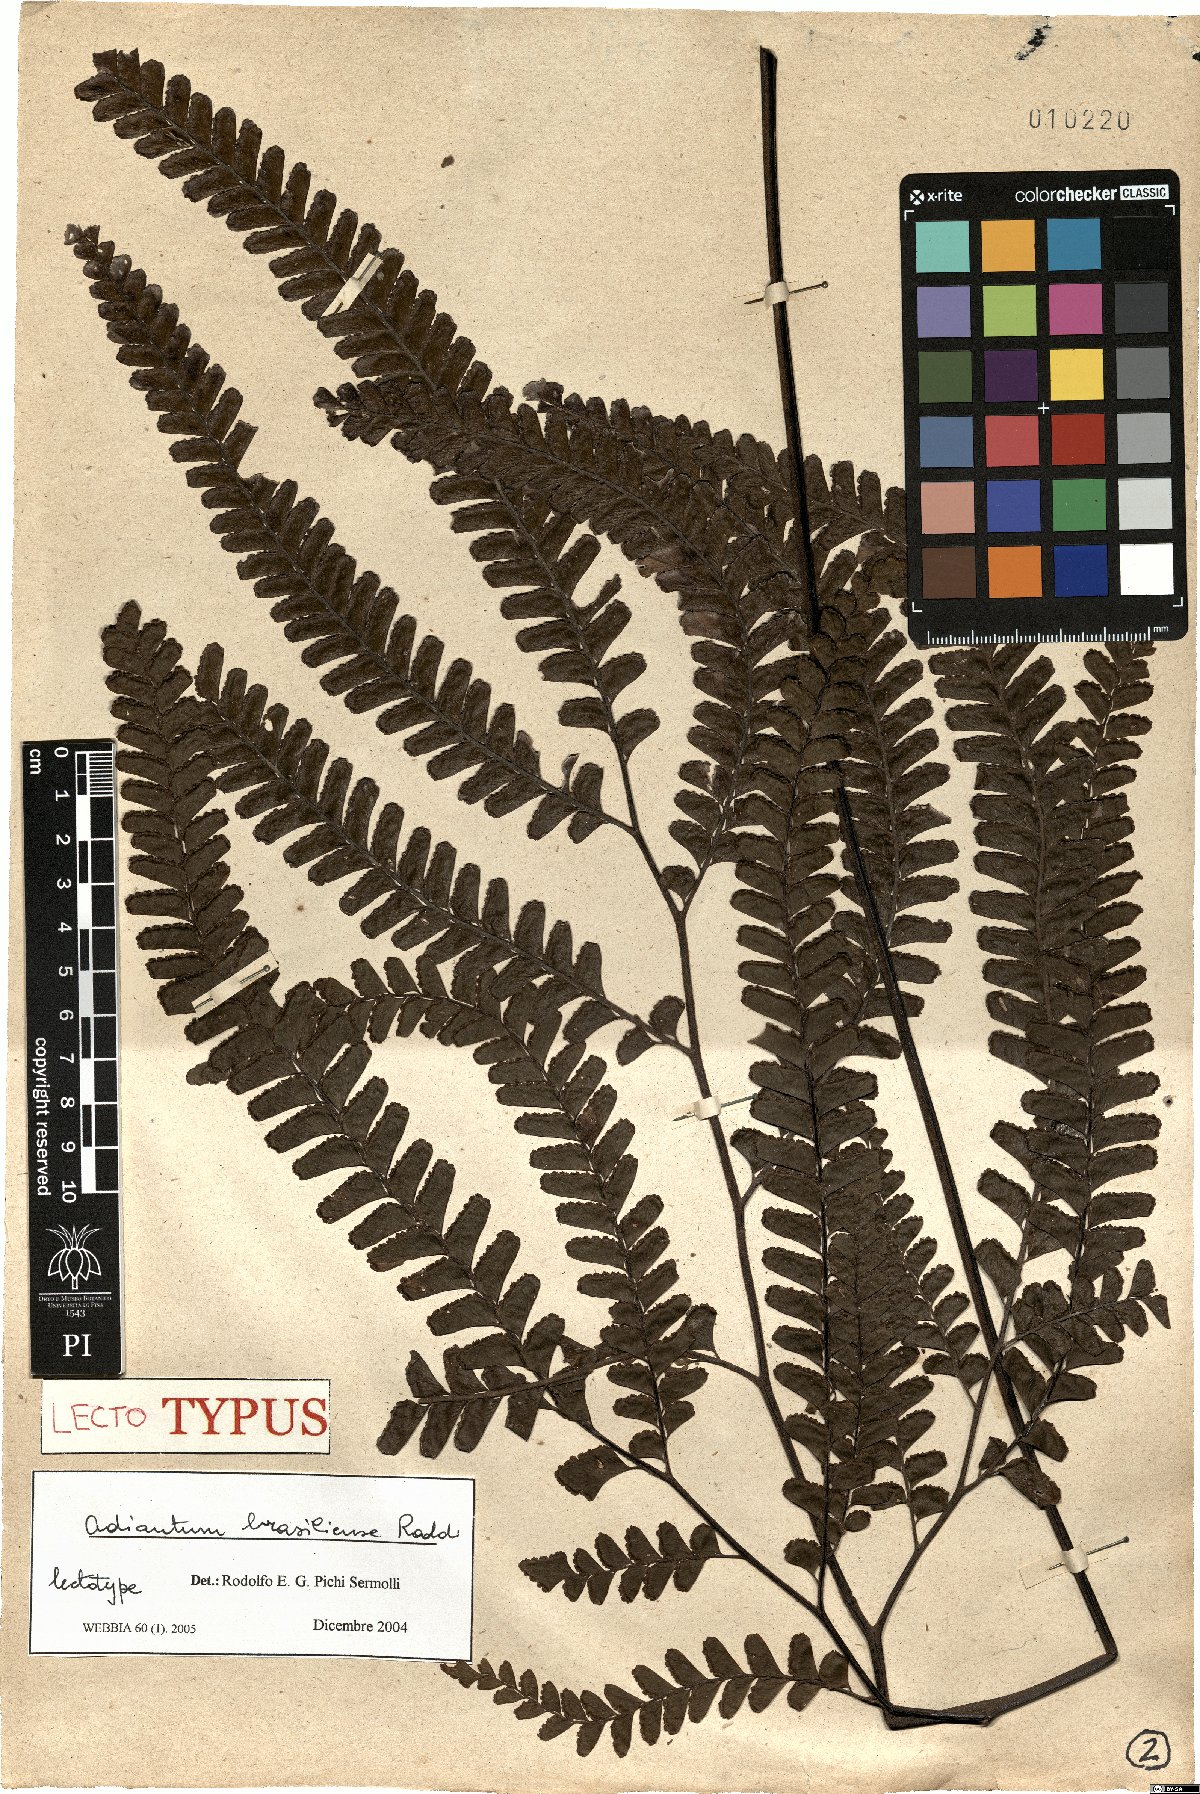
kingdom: Plantae
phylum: Tracheophyta
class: Polypodiopsida
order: Polypodiales
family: Pteridaceae
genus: Adiantum
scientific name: Adiantum abscissum
